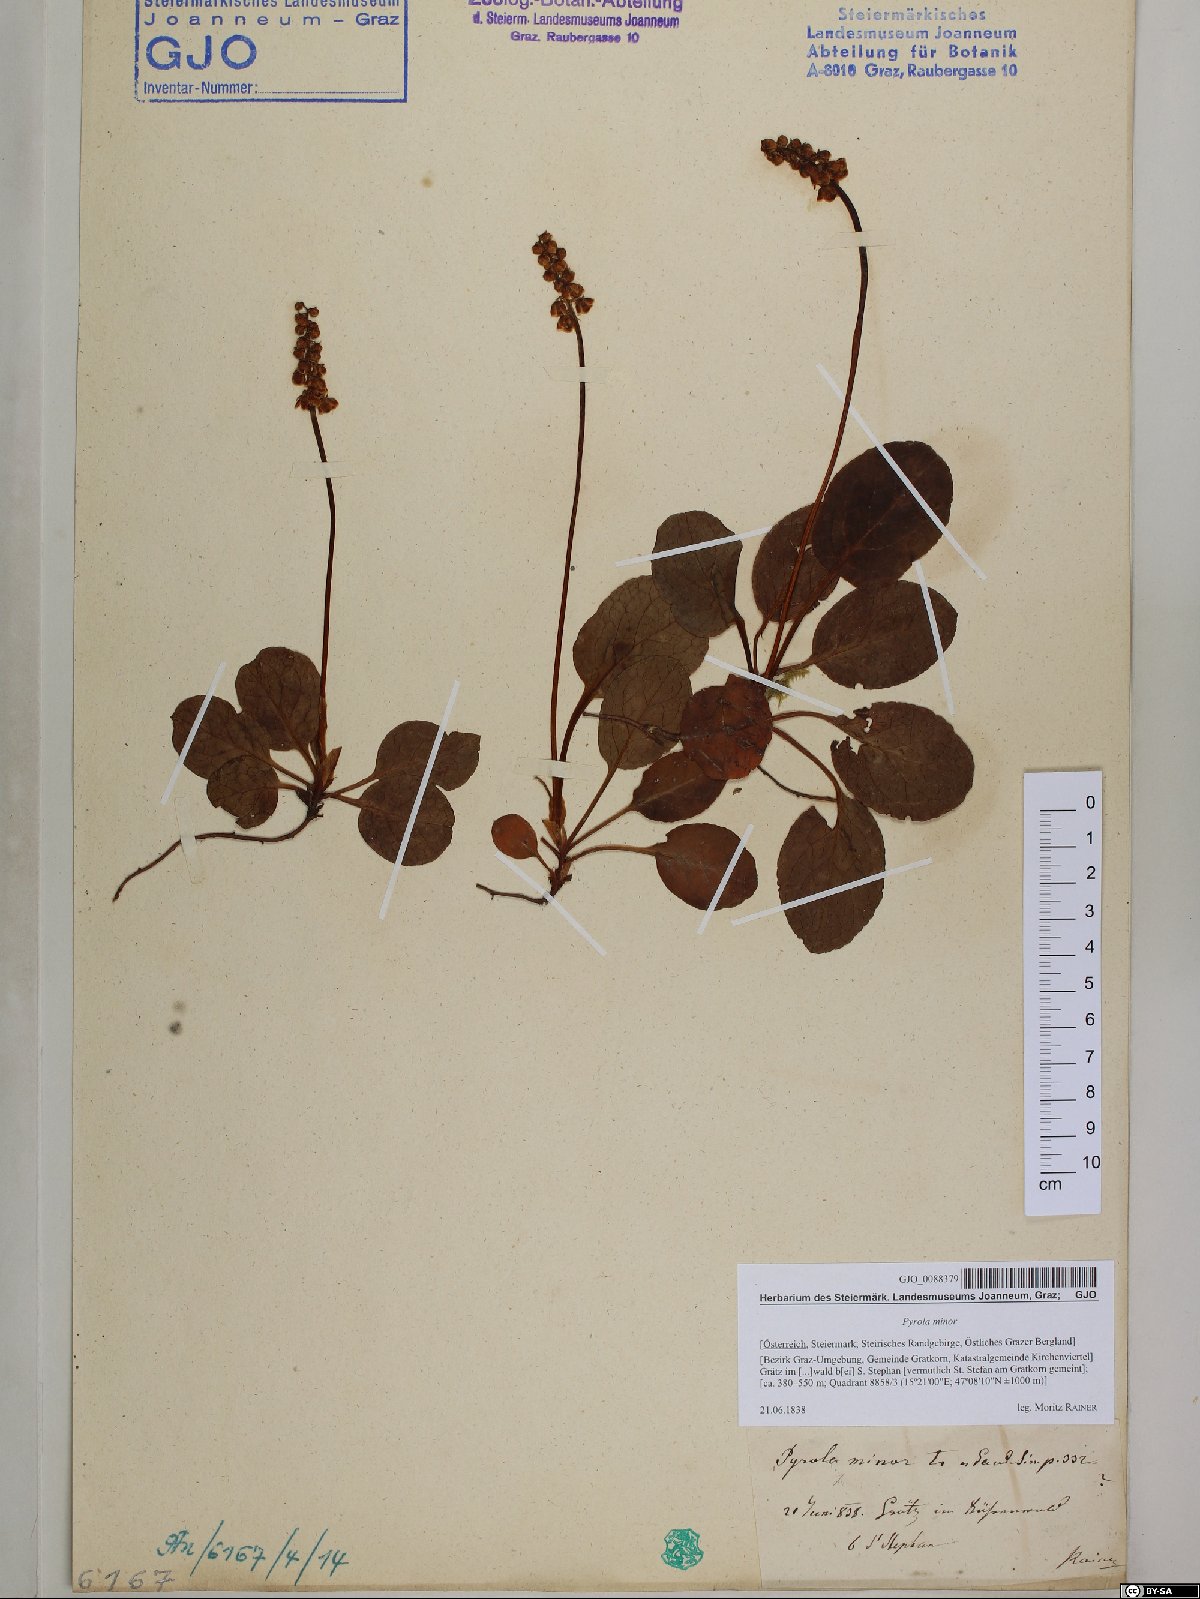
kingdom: Plantae
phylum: Tracheophyta
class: Magnoliopsida
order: Ericales
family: Ericaceae
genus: Pyrola
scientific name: Pyrola minor
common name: Common wintergreen
